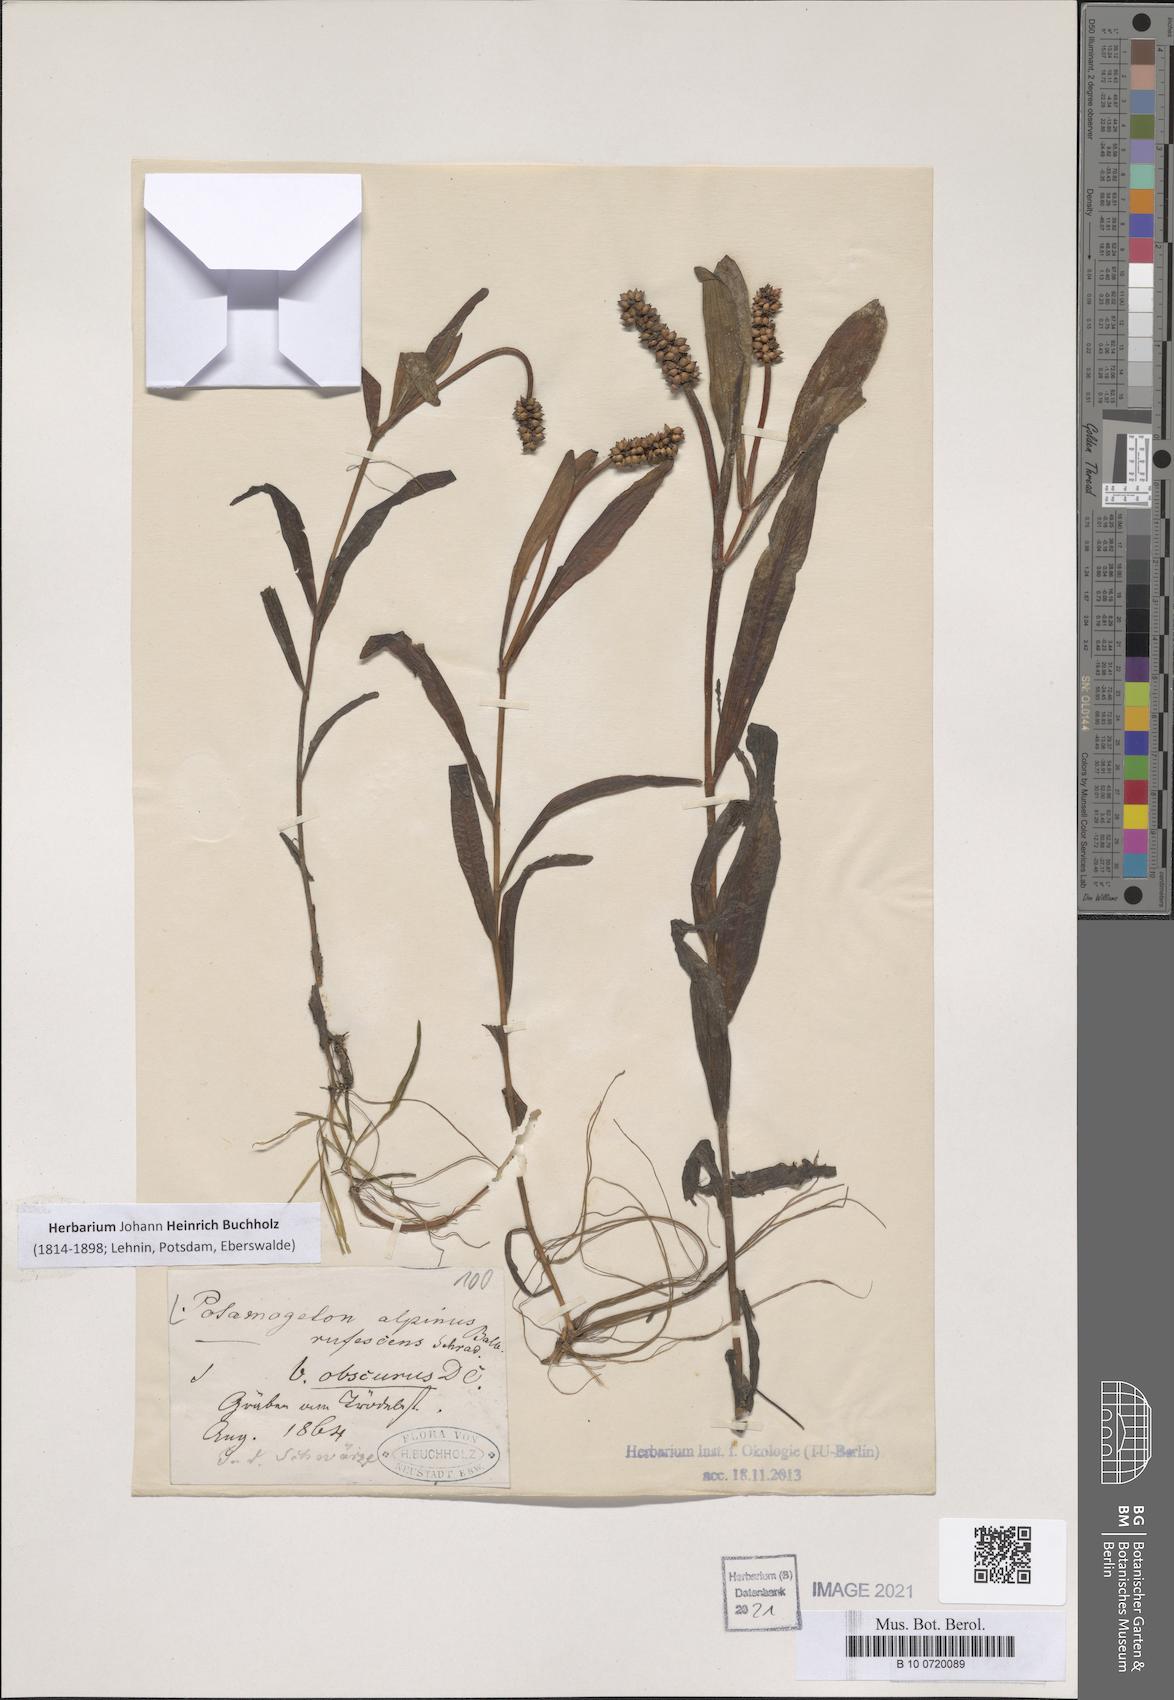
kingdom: Plantae
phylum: Tracheophyta
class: Liliopsida
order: Alismatales
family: Potamogetonaceae
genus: Potamogeton
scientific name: Potamogeton alpinus
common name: Red pondweed
